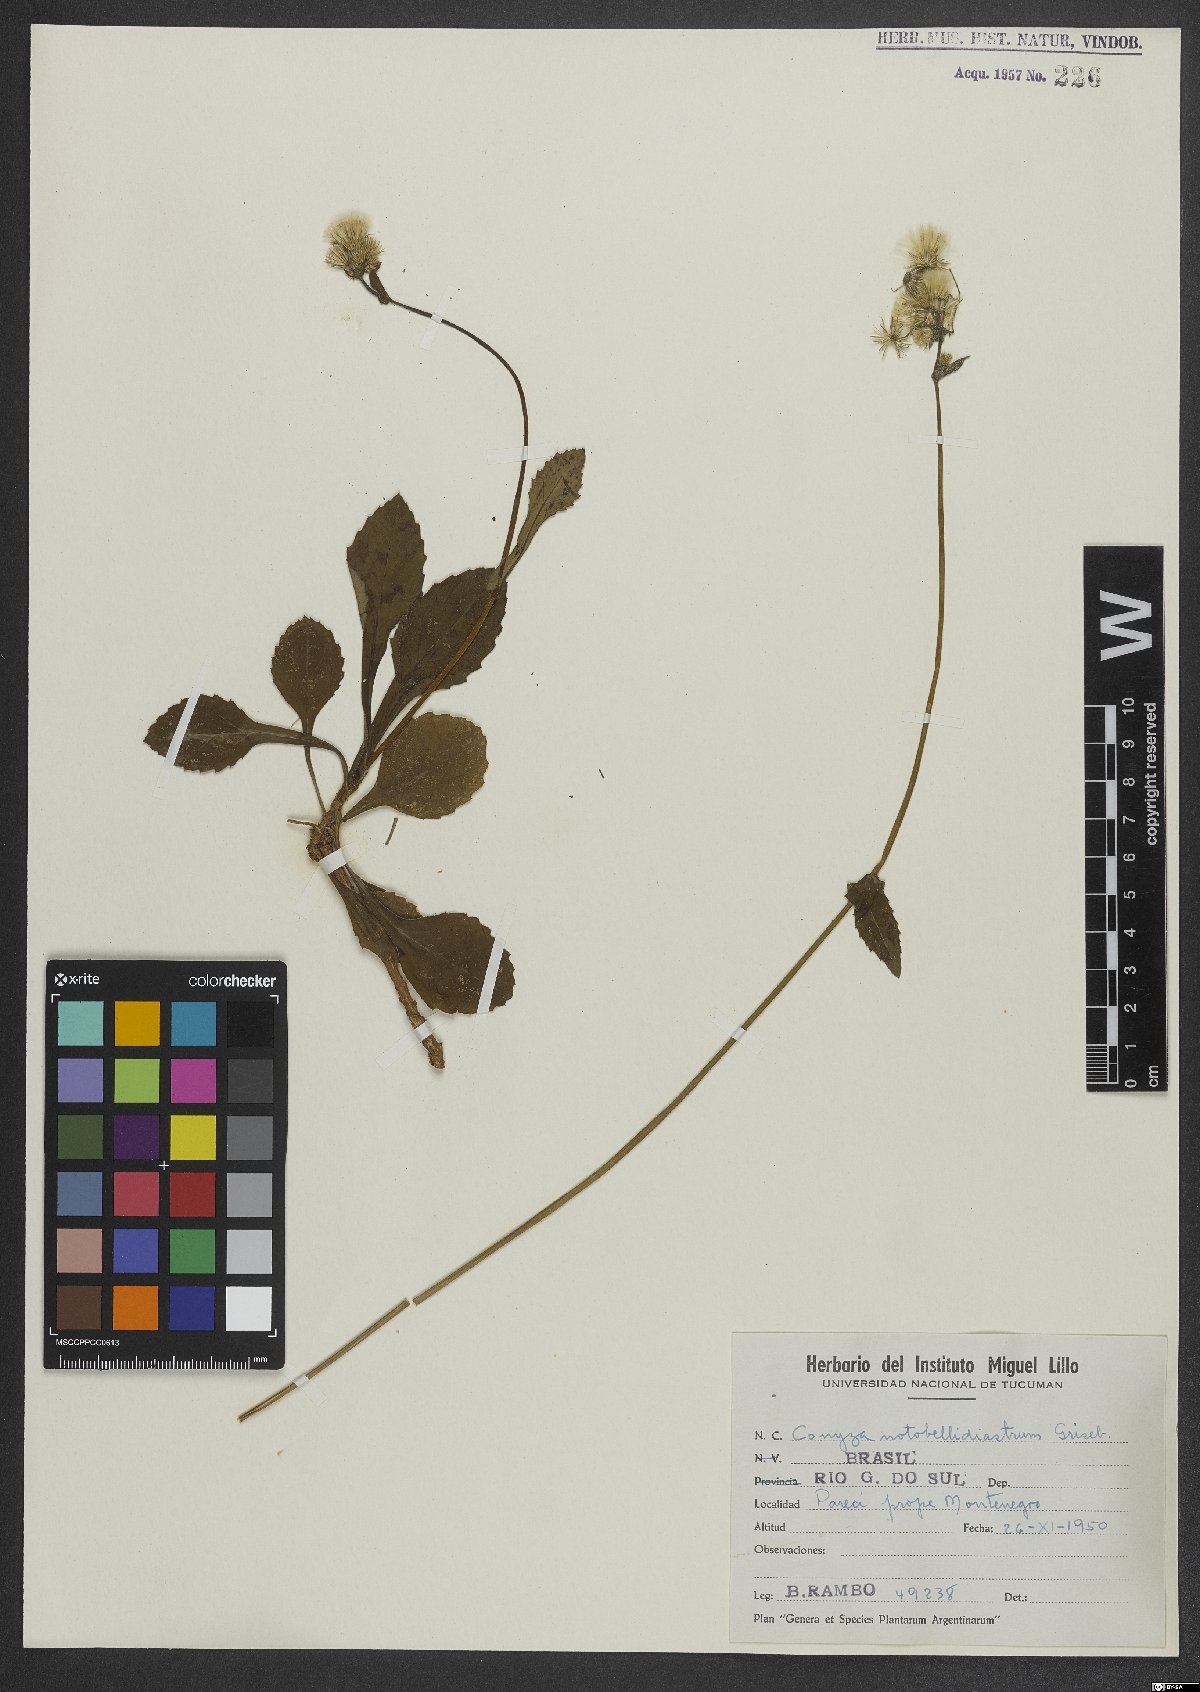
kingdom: Plantae
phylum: Tracheophyta
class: Magnoliopsida
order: Asterales
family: Asteraceae
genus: Exostigma
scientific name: Exostigma notobellidiastrum
